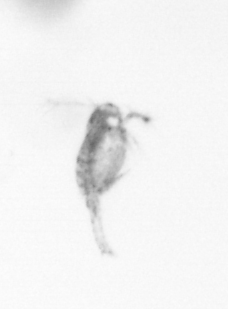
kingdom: Animalia
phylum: Arthropoda
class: Copepoda
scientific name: Copepoda
